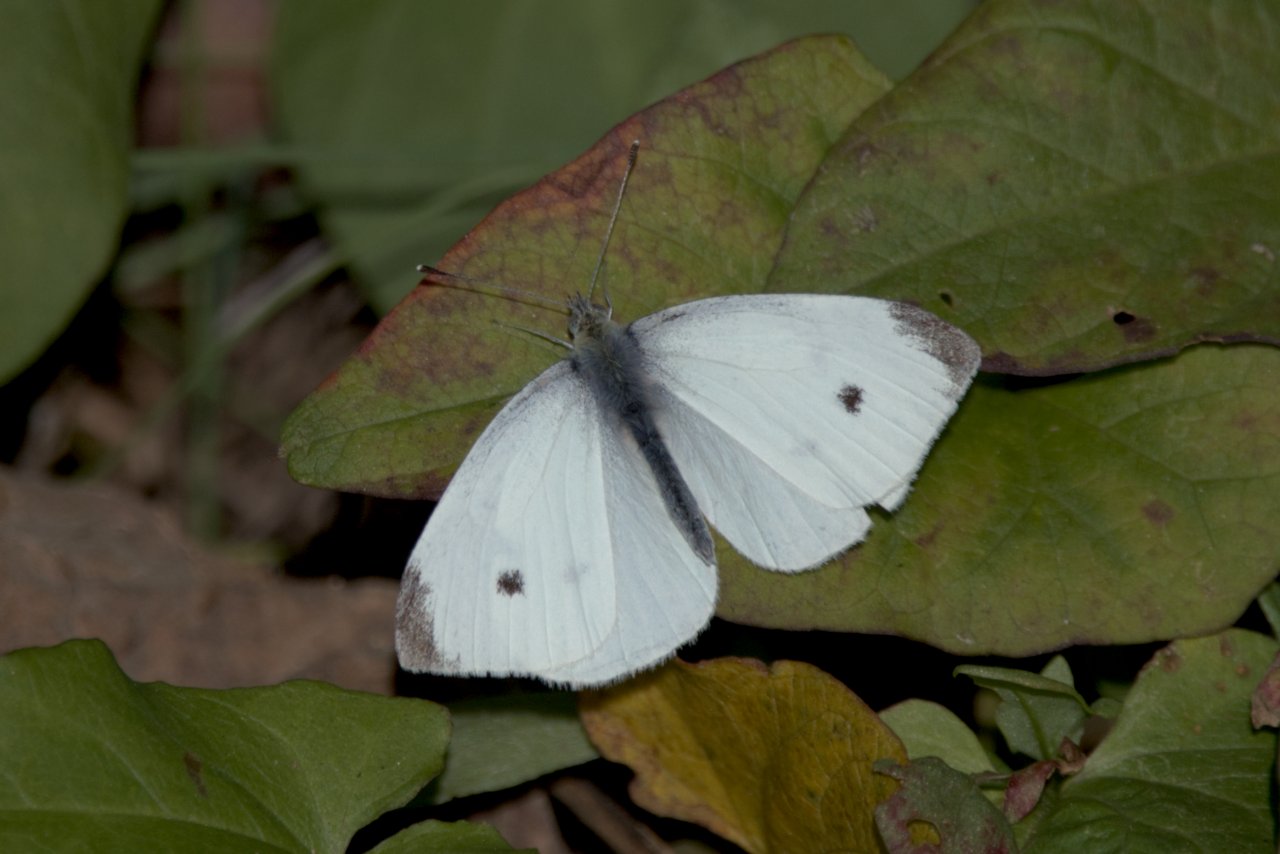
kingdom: Animalia
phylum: Arthropoda
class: Insecta
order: Lepidoptera
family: Pieridae
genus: Pieris
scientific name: Pieris rapae
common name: Cabbage White
